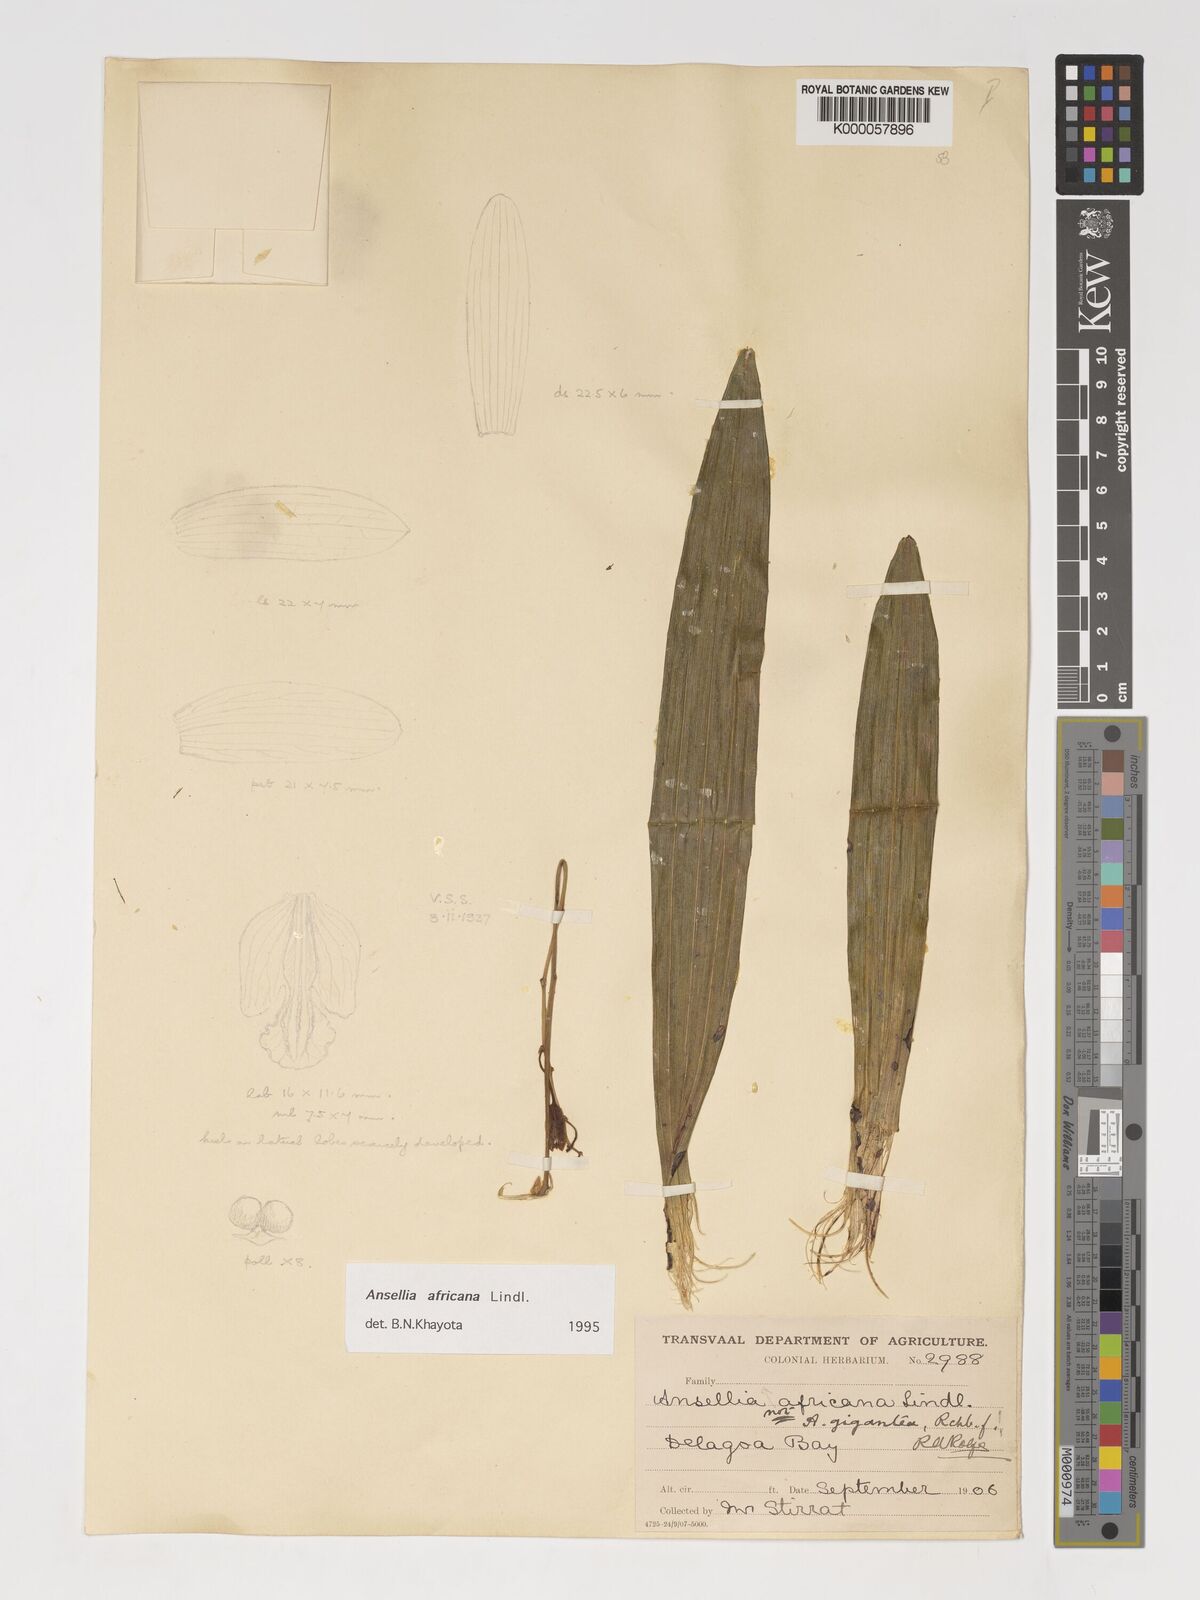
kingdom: Plantae
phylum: Tracheophyta
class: Liliopsida
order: Asparagales
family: Orchidaceae
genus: Ansellia
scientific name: Ansellia africana
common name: African ansellia
